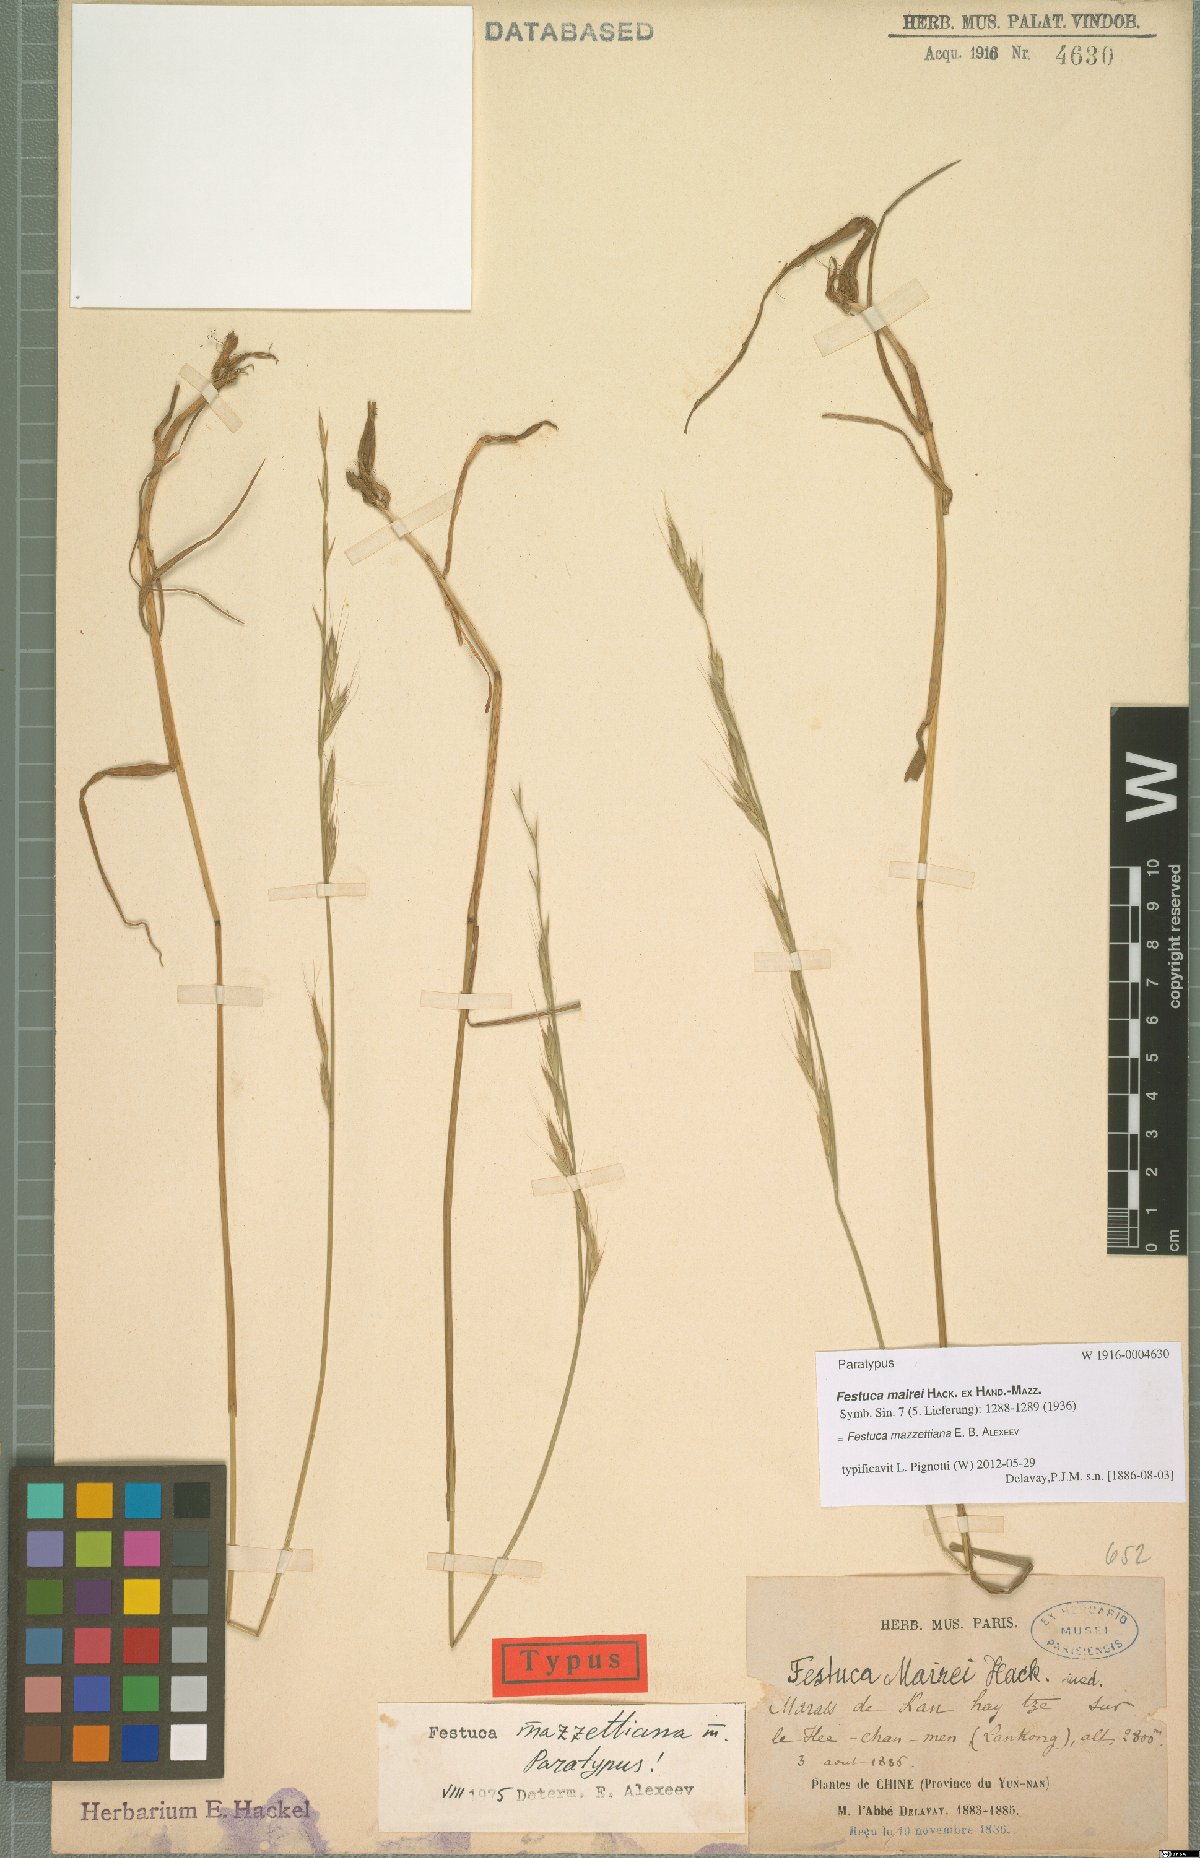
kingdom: Plantae
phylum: Tracheophyta
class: Liliopsida
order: Poales
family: Poaceae
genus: Lolium
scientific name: Lolium mazzettianum
